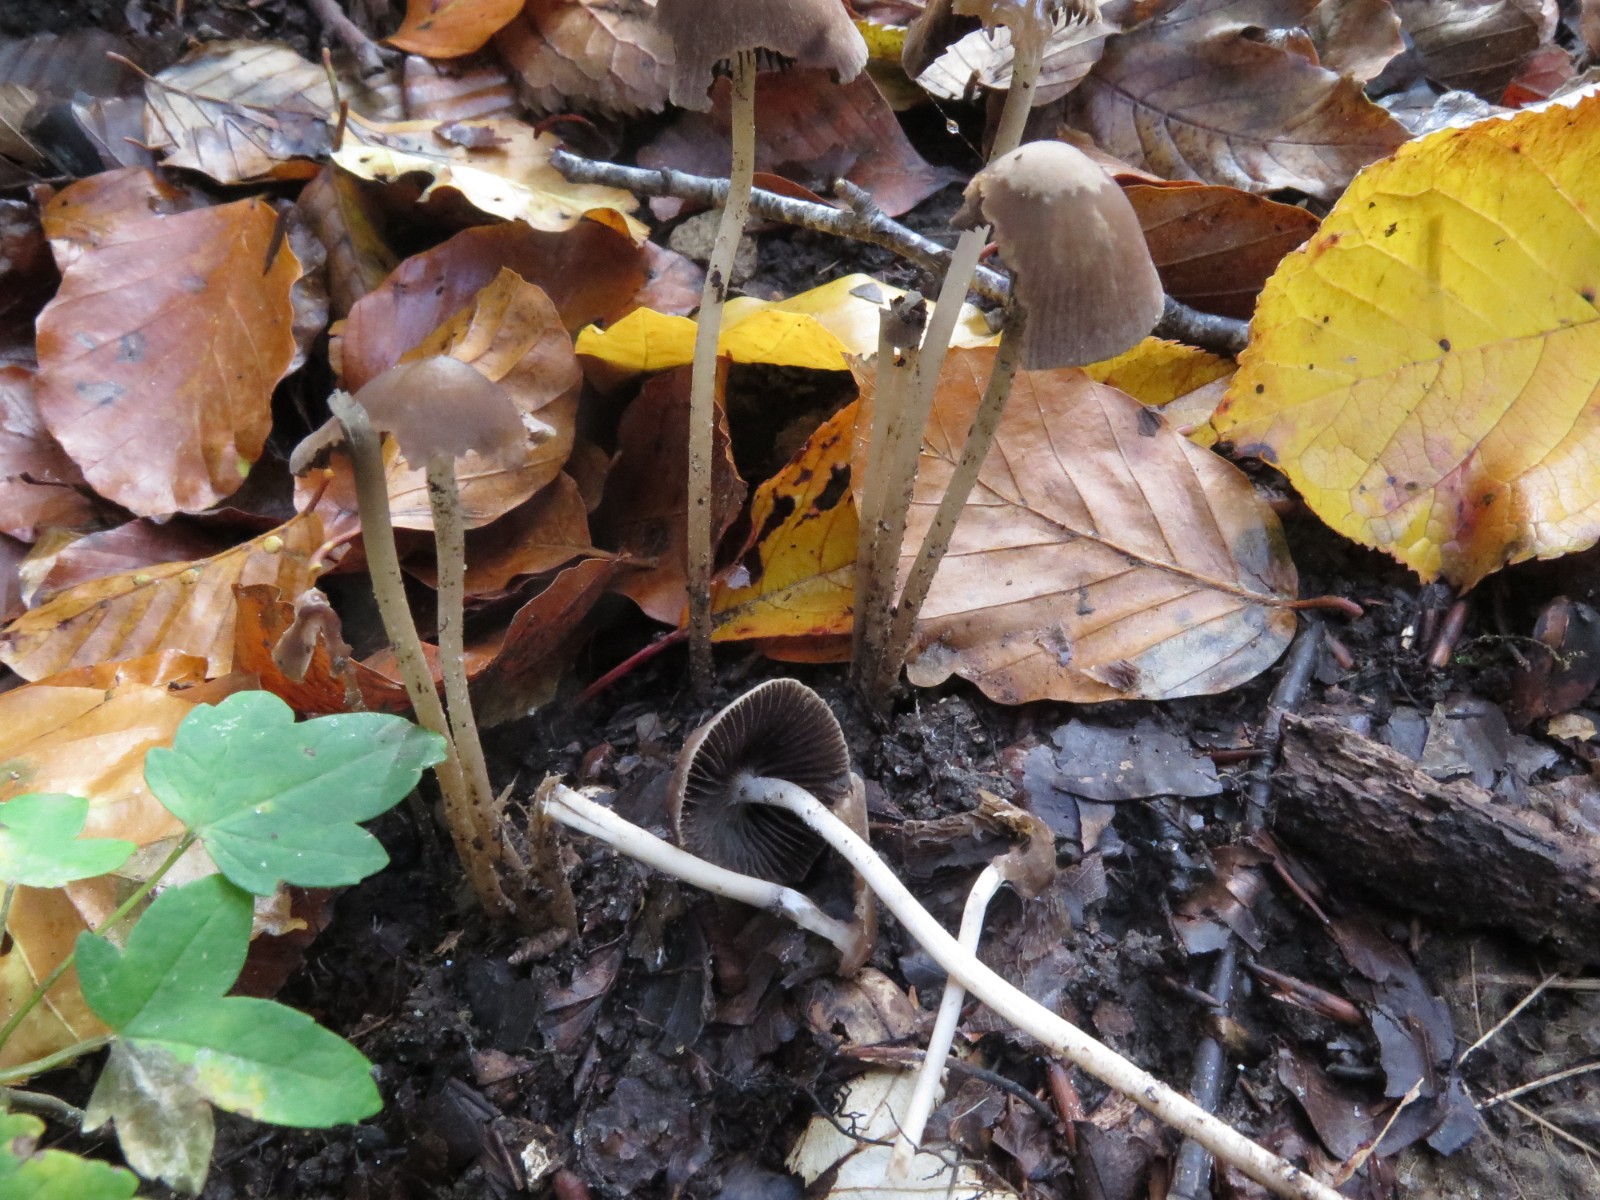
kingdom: Fungi
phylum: Basidiomycota
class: Agaricomycetes
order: Agaricales
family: Psathyrellaceae
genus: Psathyrella
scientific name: Psathyrella microrhiza
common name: rod-mørkhat
